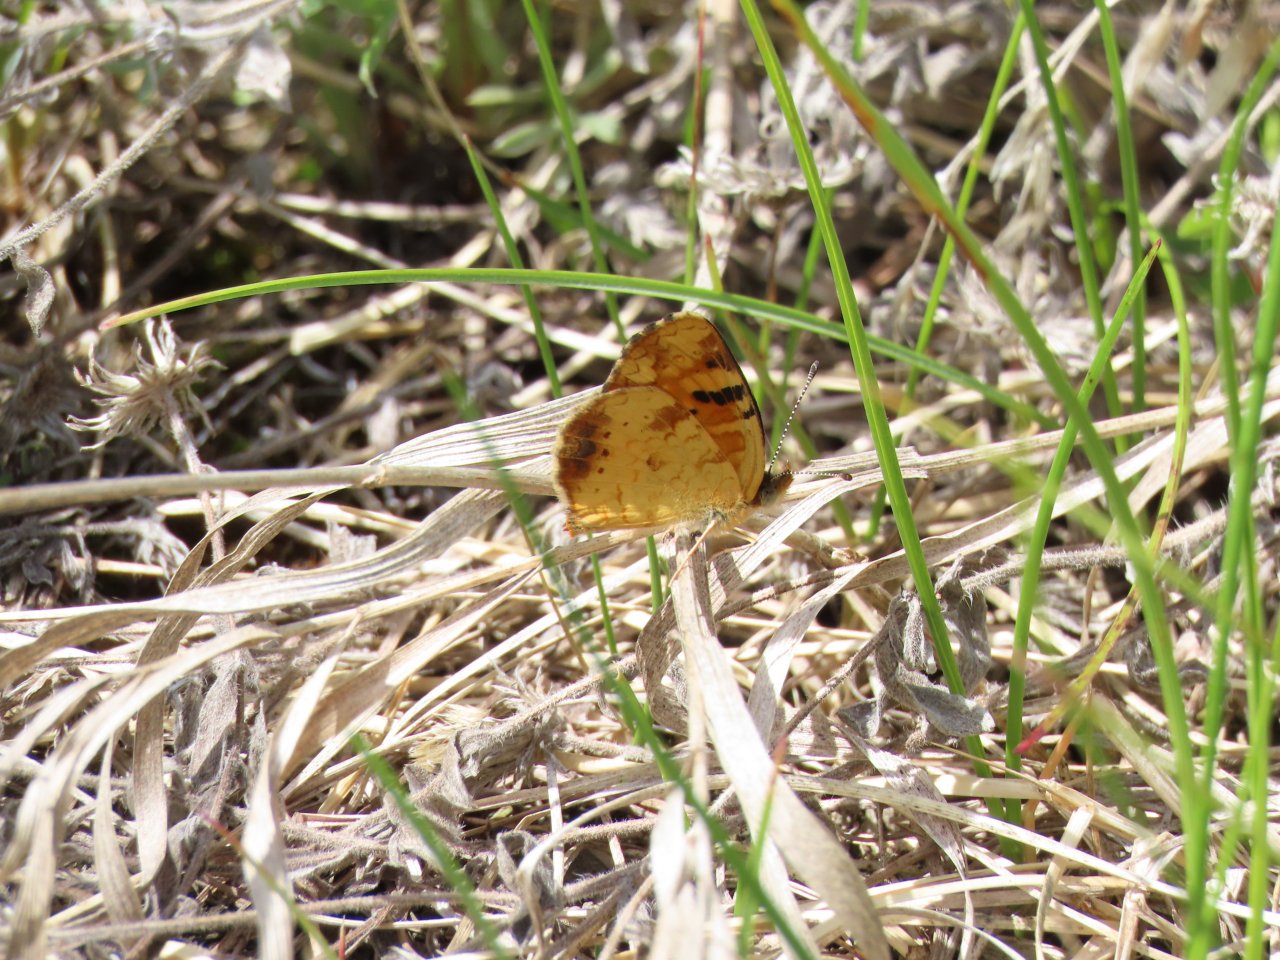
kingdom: Animalia
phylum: Arthropoda
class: Insecta
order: Lepidoptera
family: Nymphalidae
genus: Phyciodes
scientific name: Phyciodes tharos
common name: Northern Crescent
